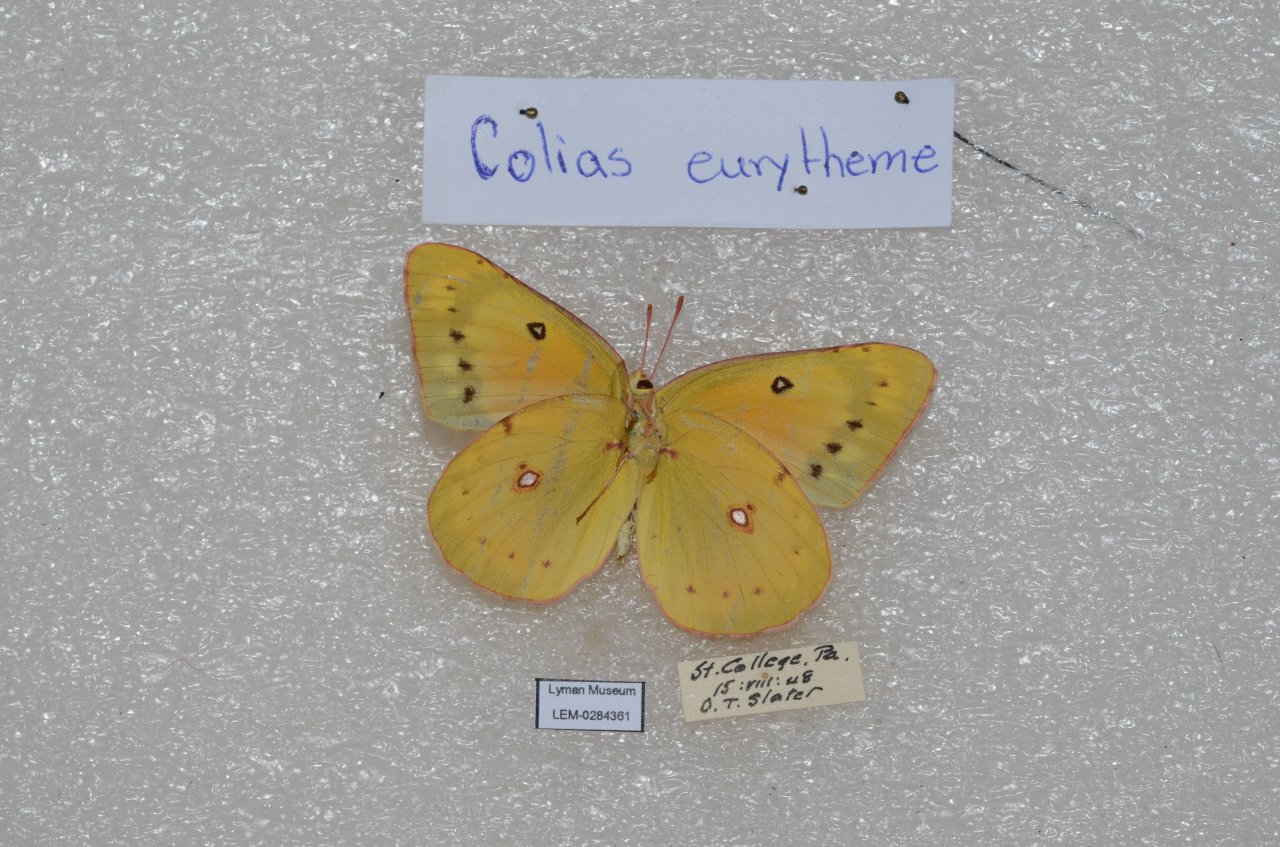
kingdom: Animalia
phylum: Arthropoda
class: Insecta
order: Lepidoptera
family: Pieridae
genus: Colias
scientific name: Colias eurytheme
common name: Orange Sulphur
